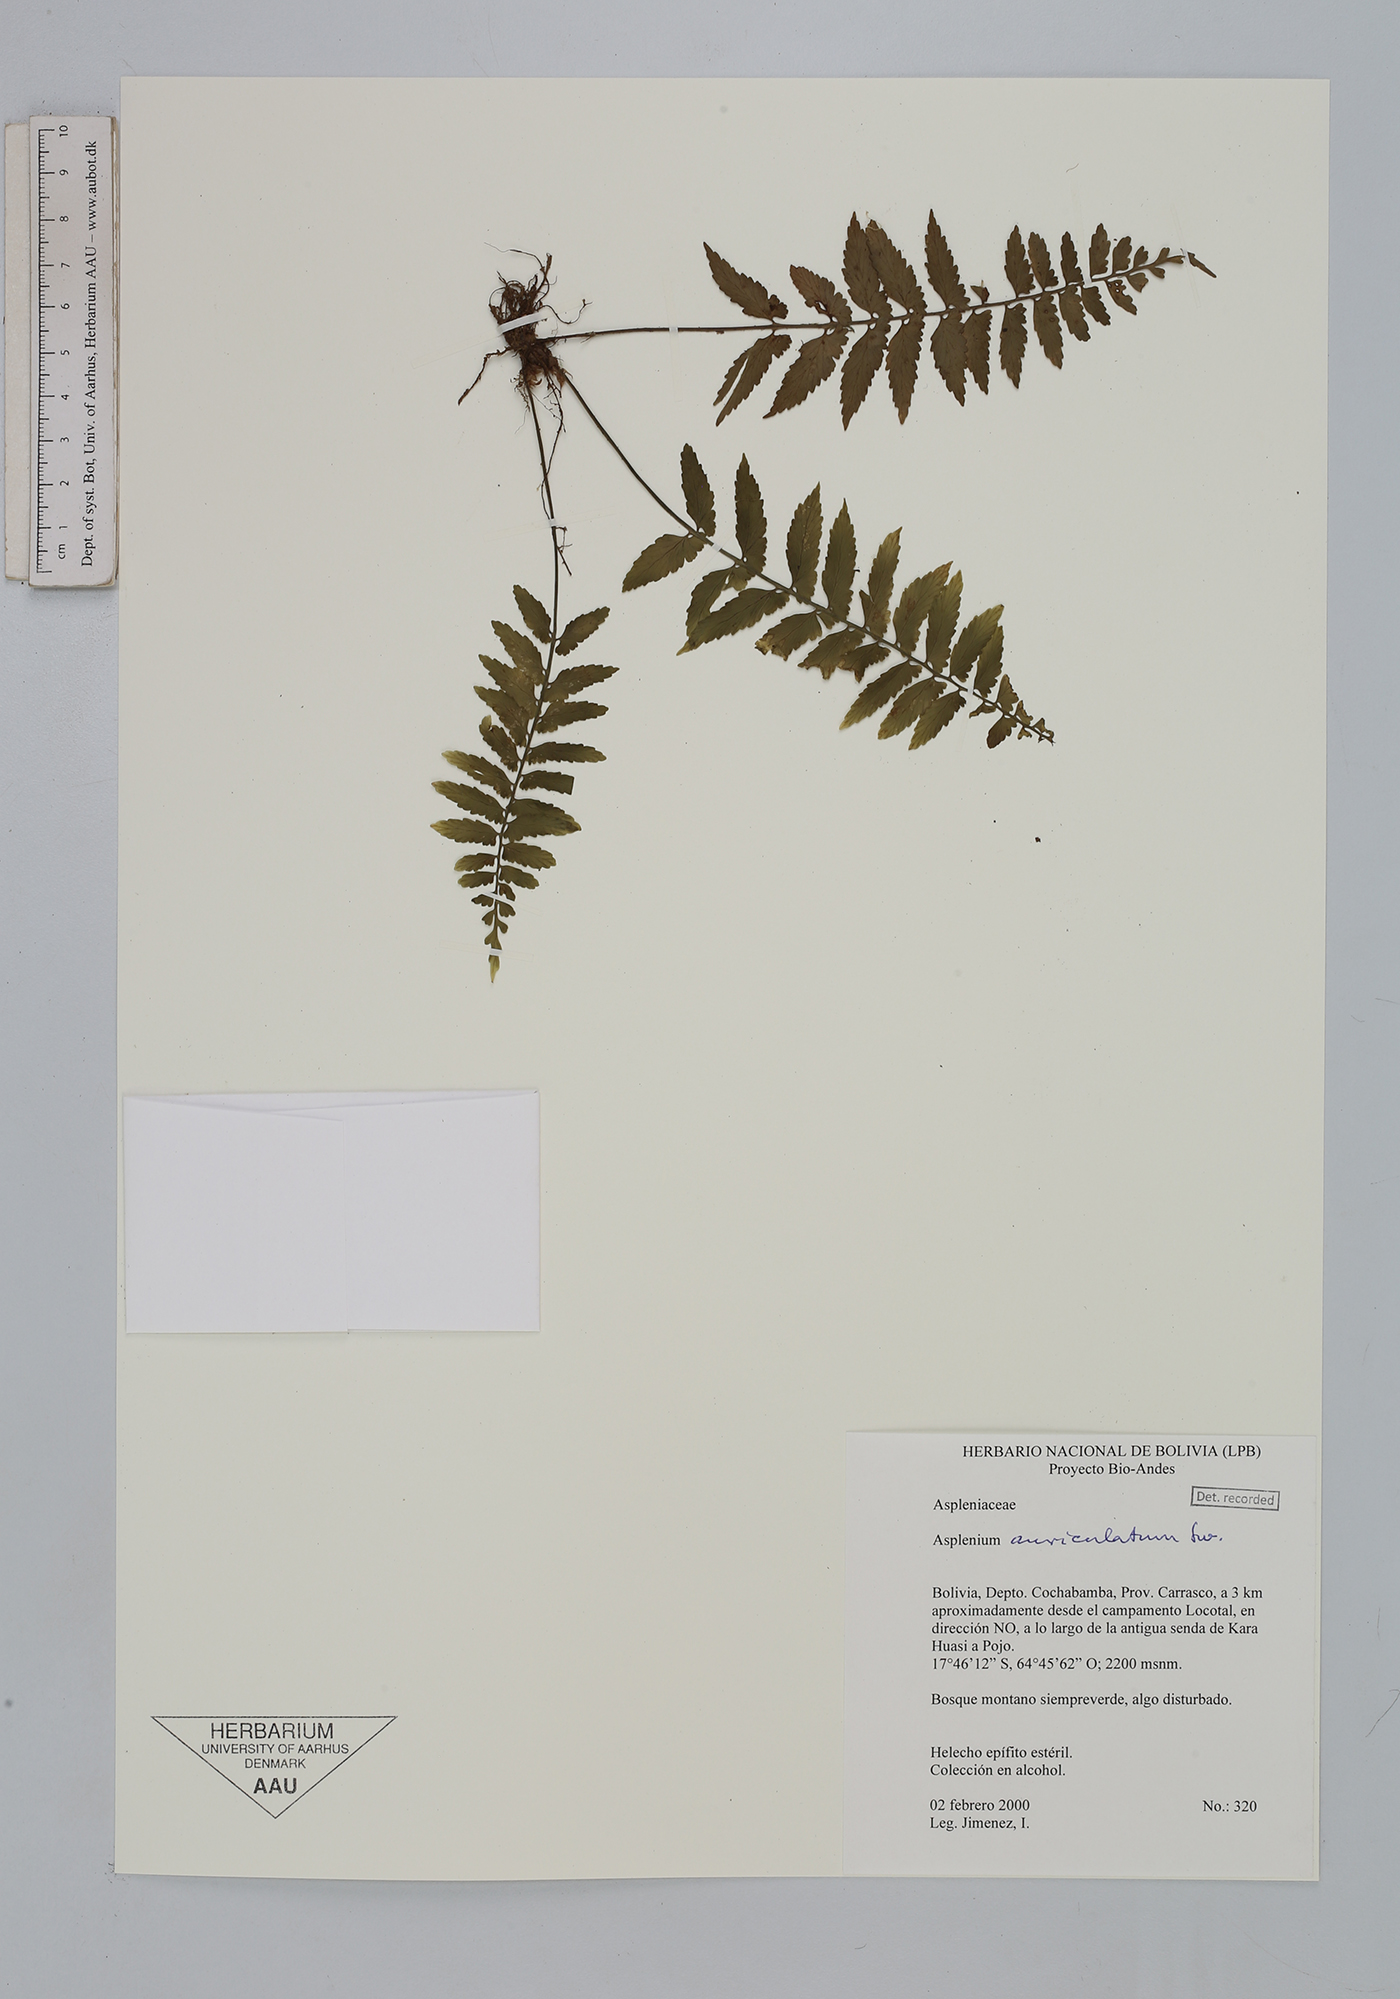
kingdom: Plantae
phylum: Tracheophyta
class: Polypodiopsida
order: Polypodiales
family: Aspleniaceae
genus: Asplenium
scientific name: Asplenium auriculatum
